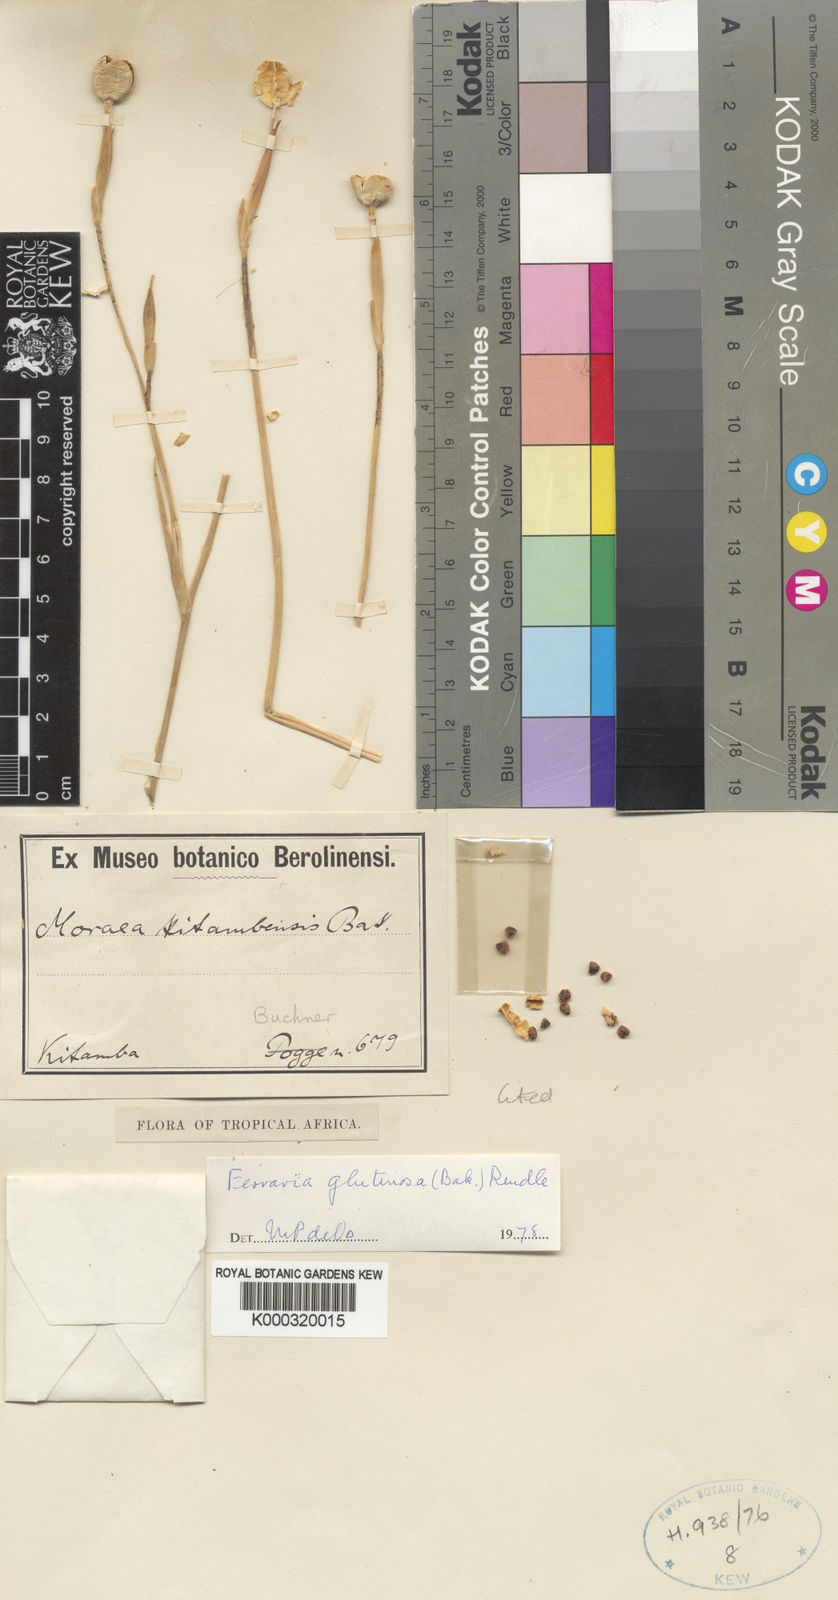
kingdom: Plantae
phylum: Tracheophyta
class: Liliopsida
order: Asparagales
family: Iridaceae
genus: Ferraria
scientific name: Ferraria candelabrum
